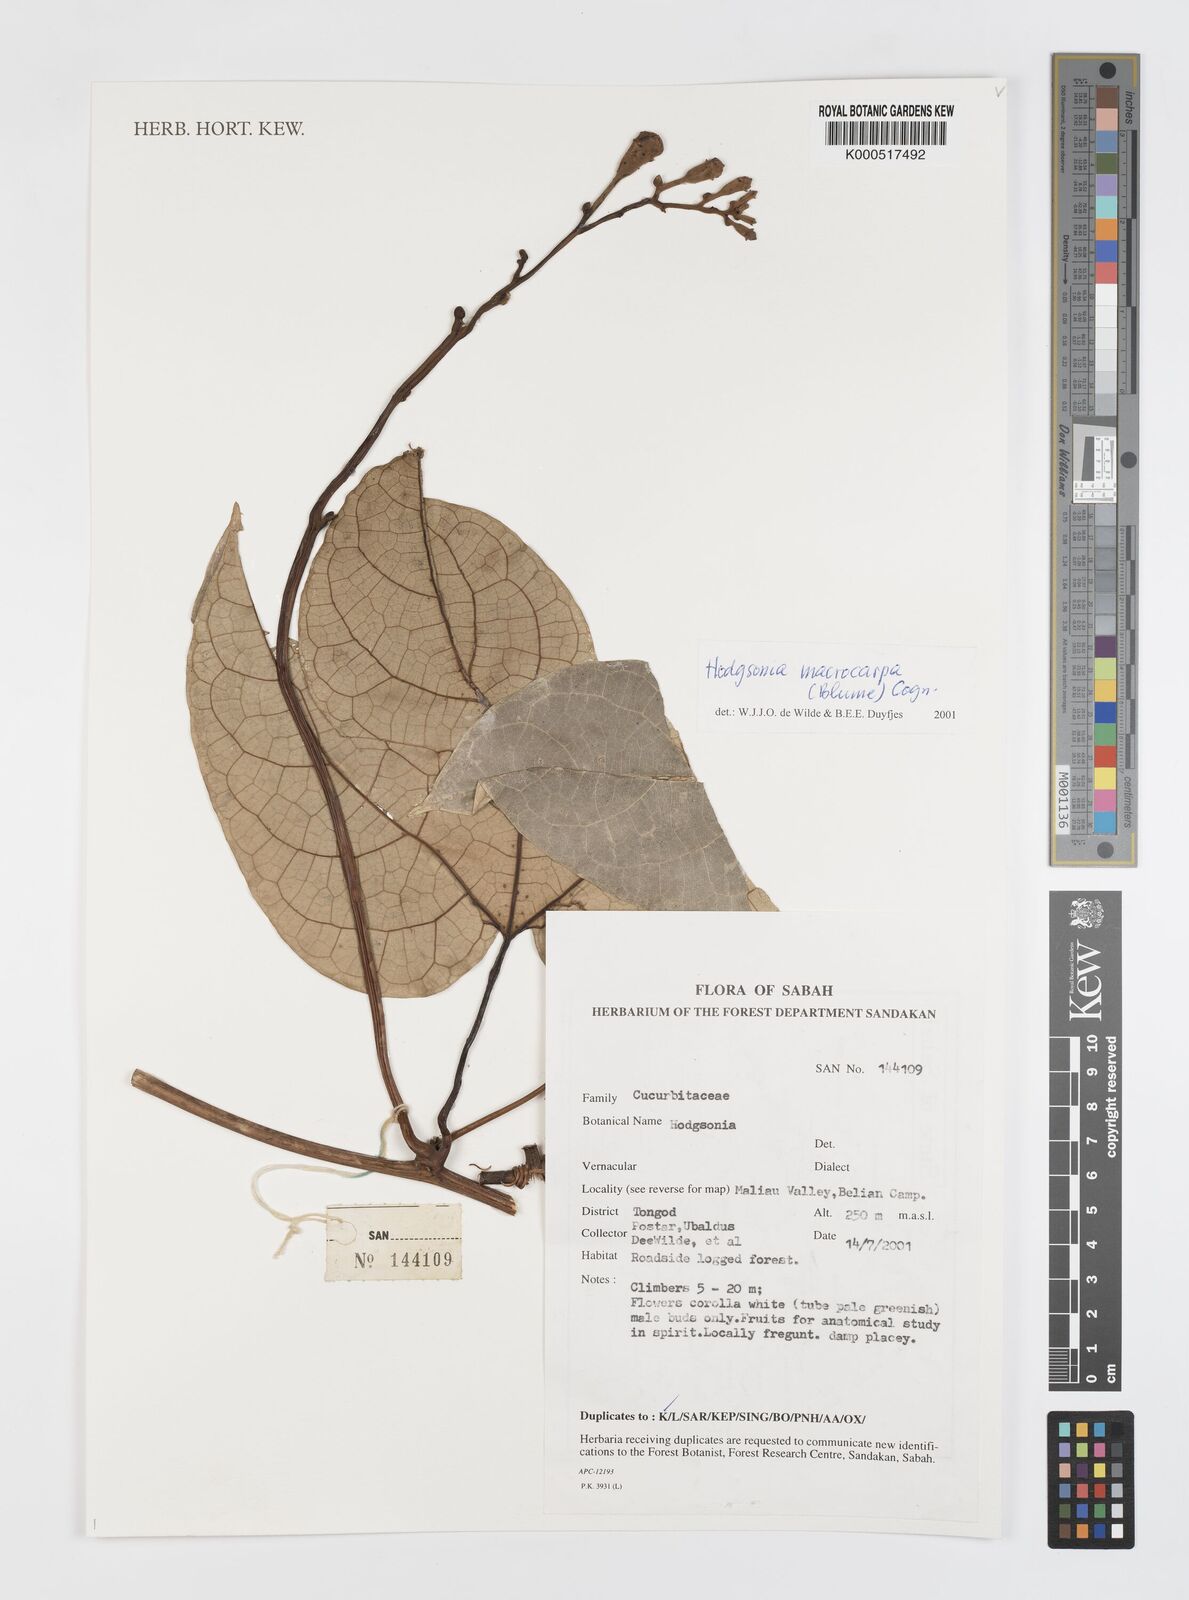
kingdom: Plantae
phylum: Tracheophyta
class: Magnoliopsida
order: Cucurbitales
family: Cucurbitaceae
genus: Hodgsonia
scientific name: Hodgsonia macrocarpa
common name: Chinese lardfruit
